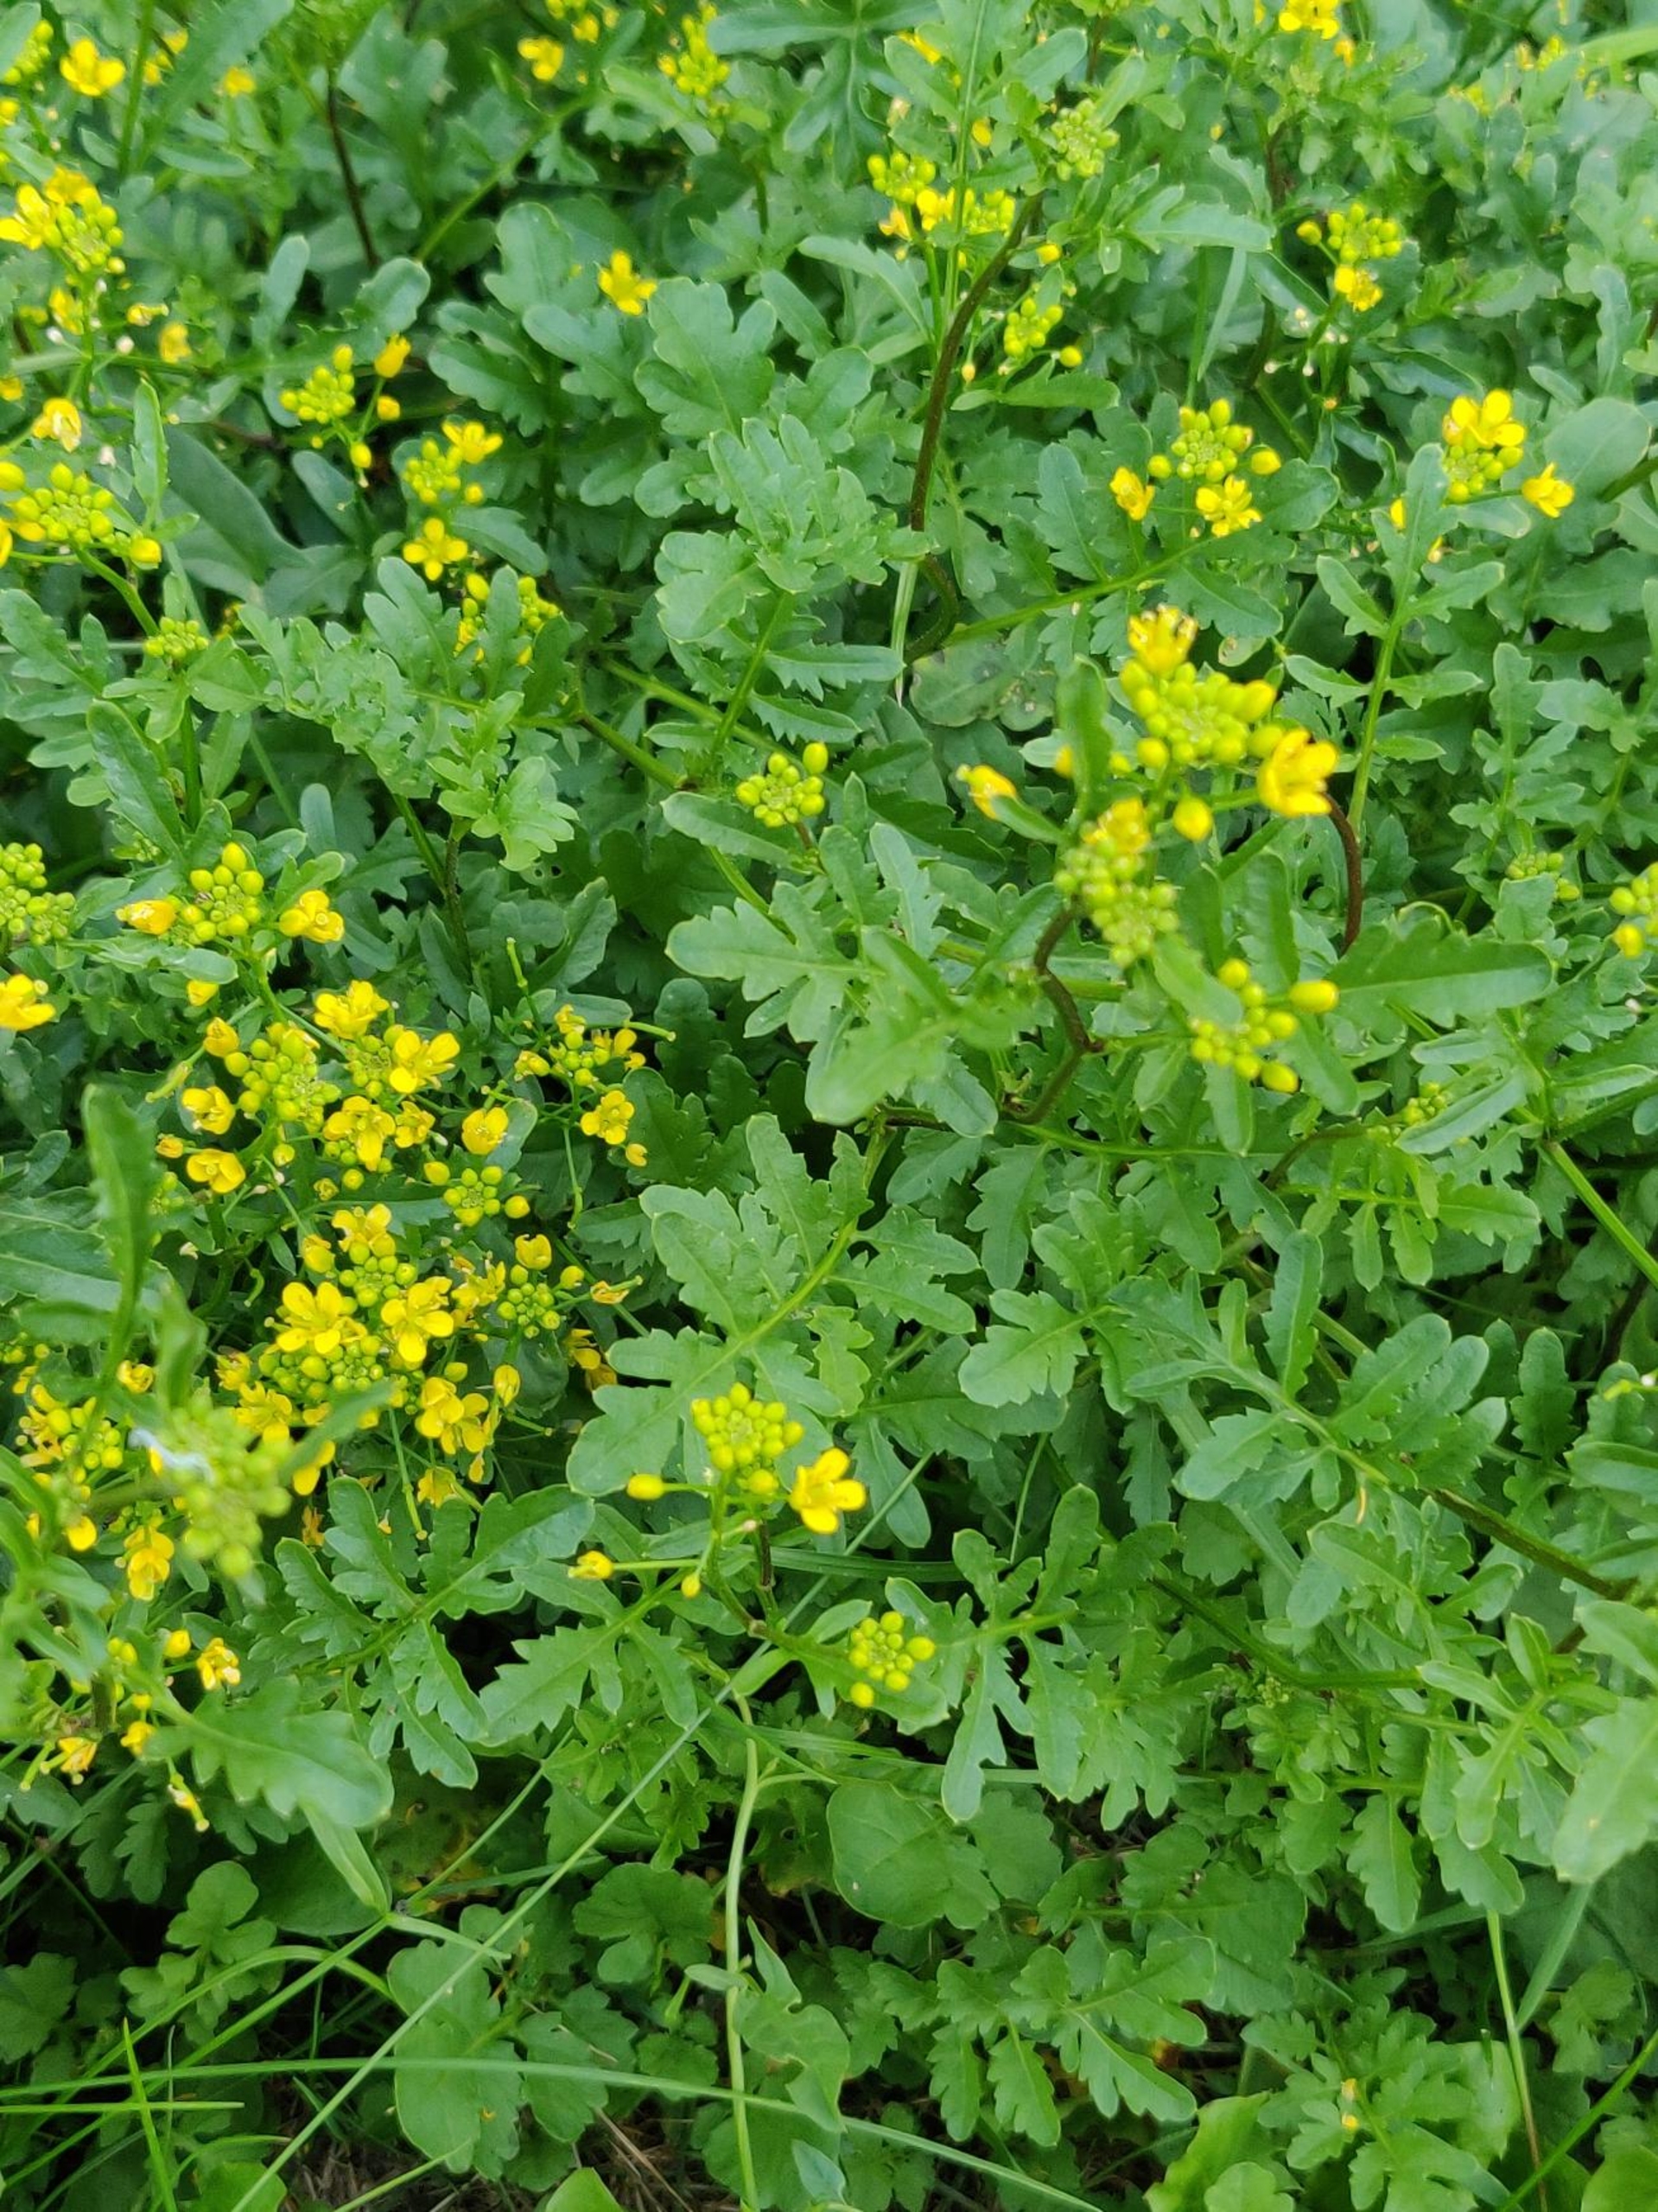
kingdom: Plantae
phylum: Tracheophyta
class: Magnoliopsida
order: Brassicales
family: Brassicaceae
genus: Rorippa
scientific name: Rorippa sylvestris
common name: Vej-guldkarse
